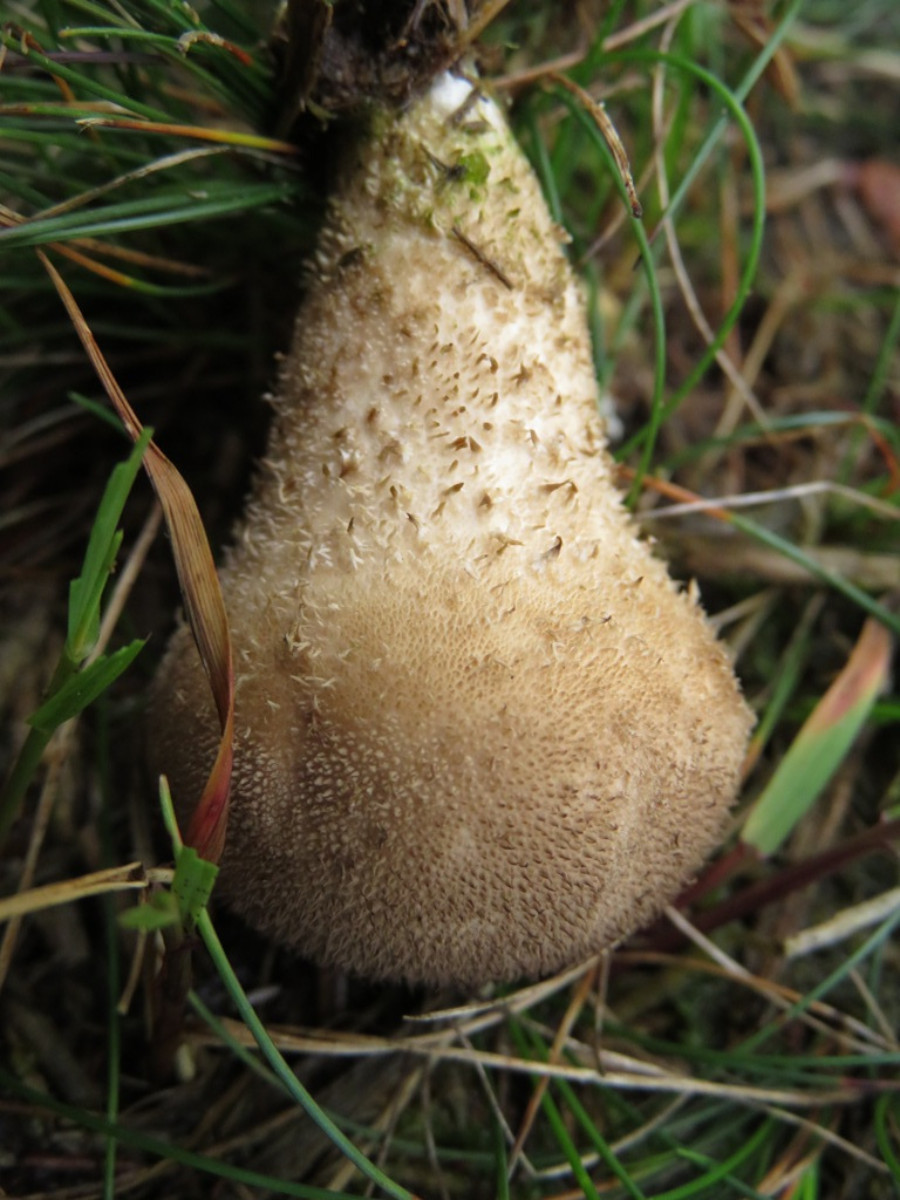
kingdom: Fungi
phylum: Basidiomycota
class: Agaricomycetes
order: Agaricales
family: Lycoperdaceae
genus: Lycoperdon
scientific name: Lycoperdon nigrescens
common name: sortagtig støvbold
